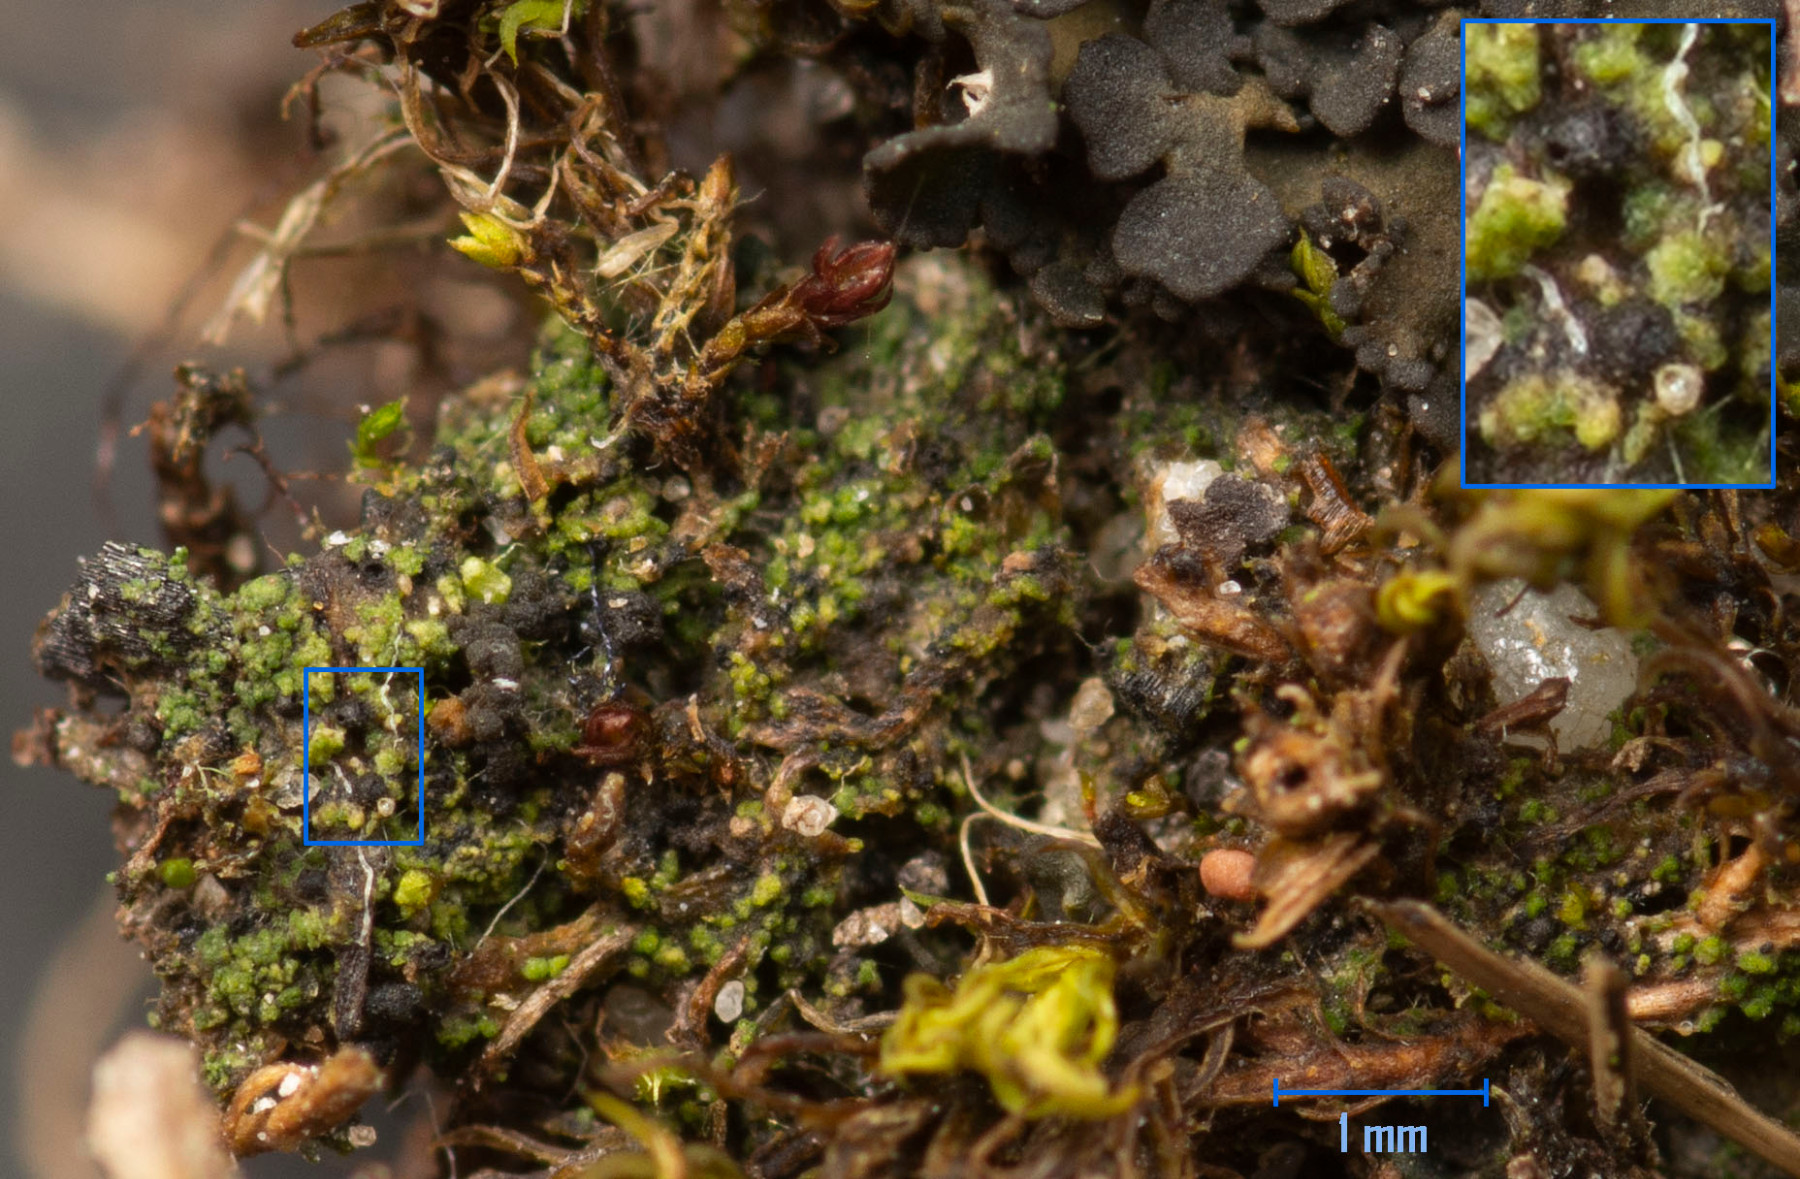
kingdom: Fungi
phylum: Ascomycota
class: Eurotiomycetes
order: Verrucariales
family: Verrucariaceae
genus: Verrucaria
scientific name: Verrucaria bryoctona
